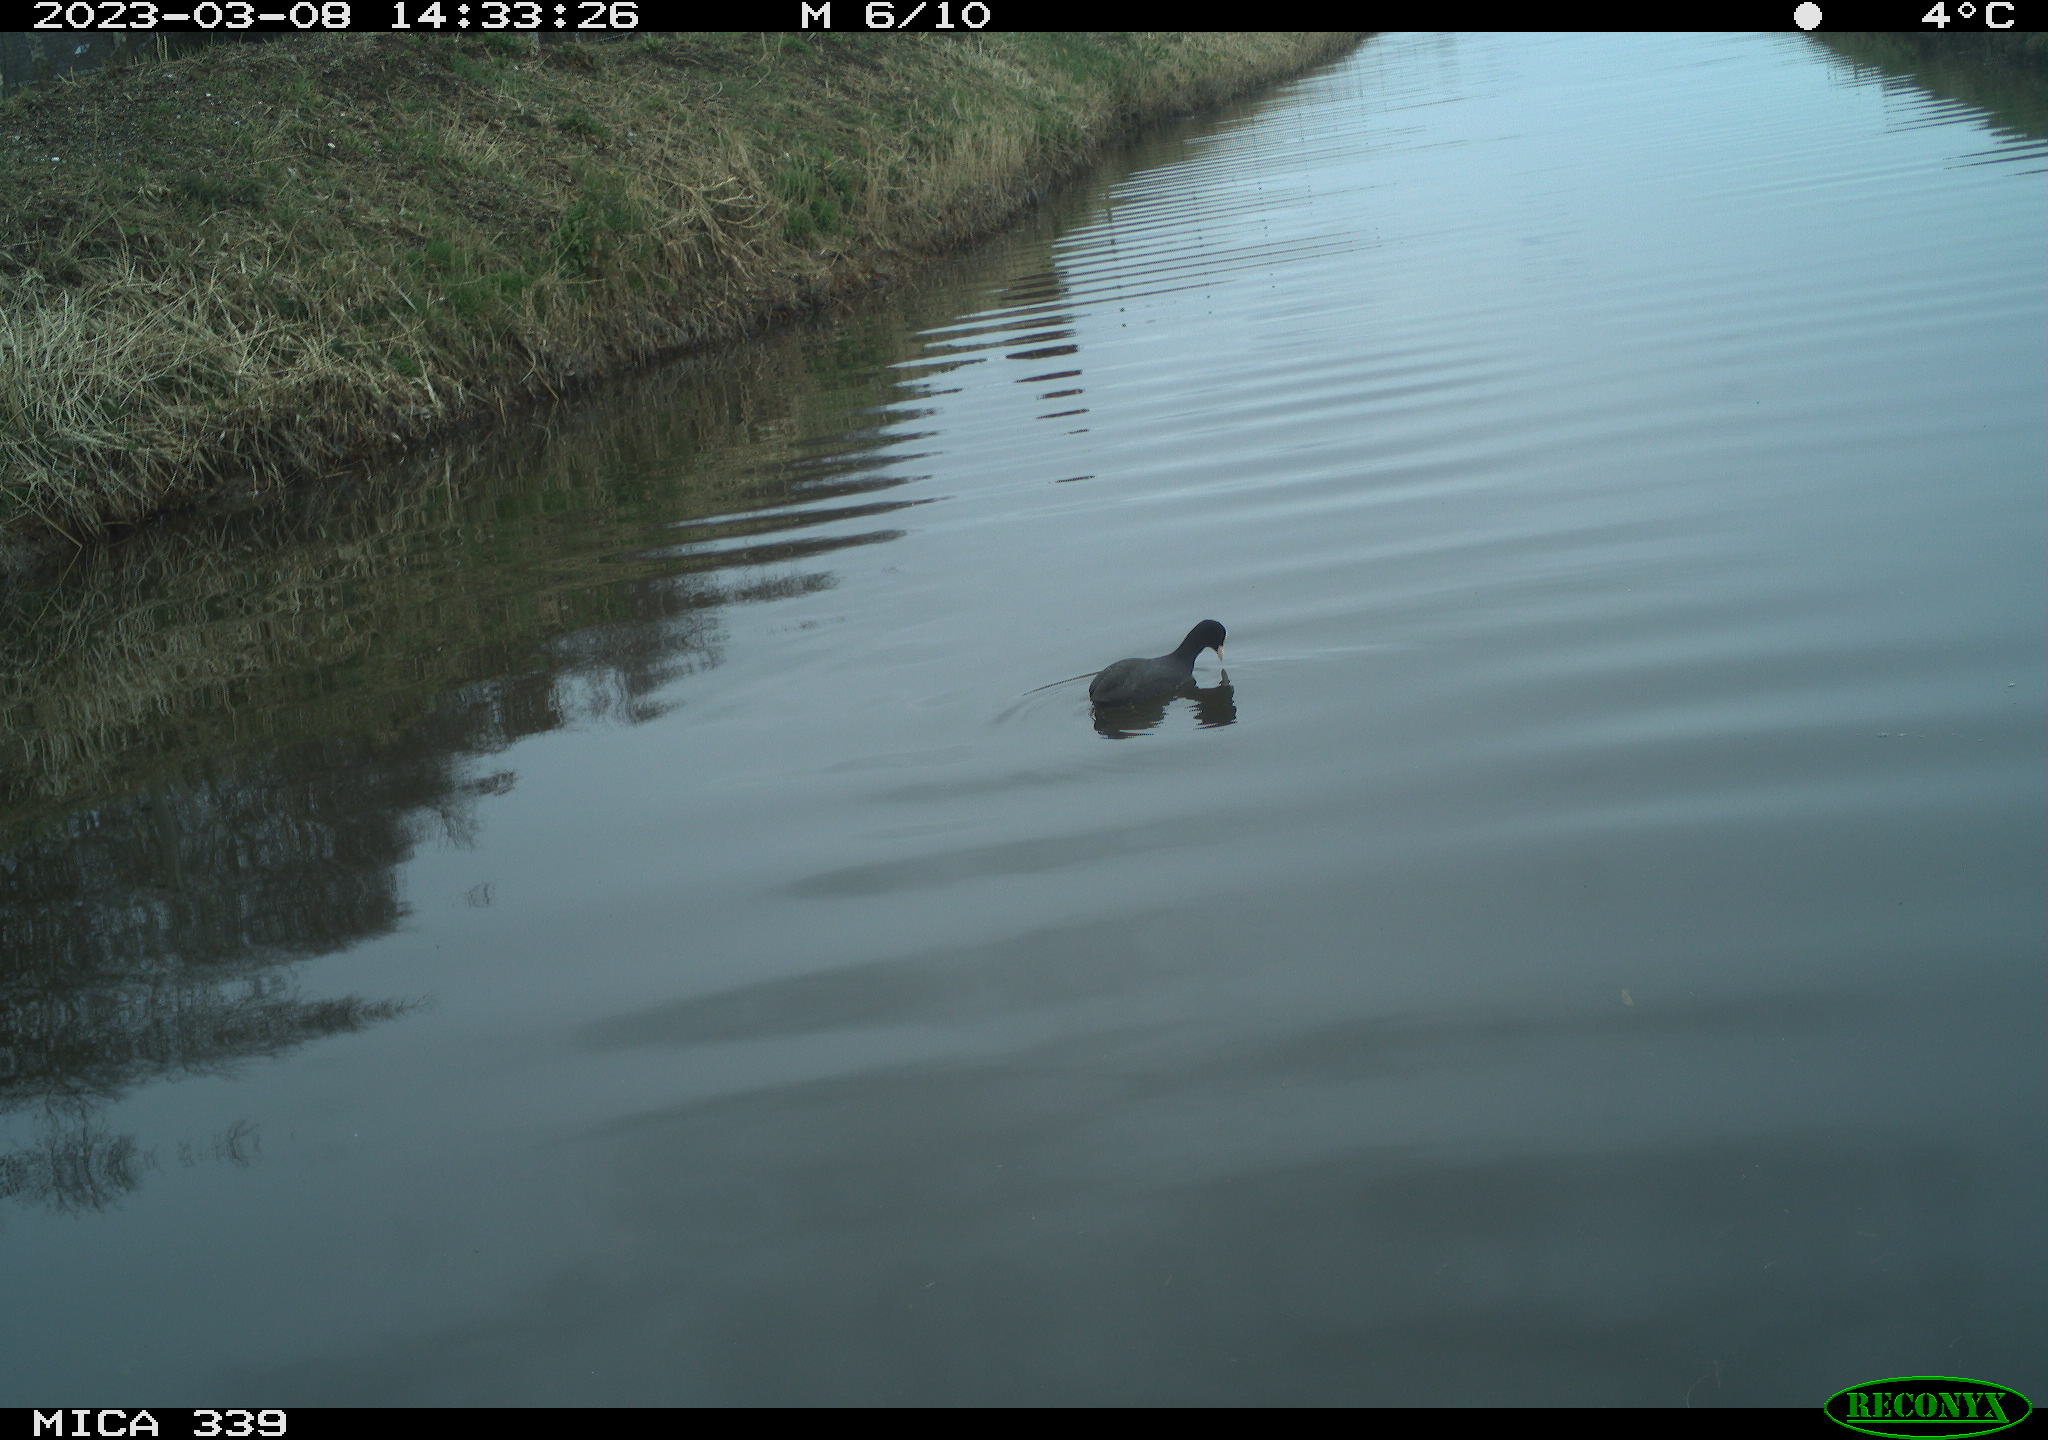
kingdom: Animalia
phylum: Chordata
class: Aves
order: Gruiformes
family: Rallidae
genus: Fulica
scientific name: Fulica atra
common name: Eurasian coot
